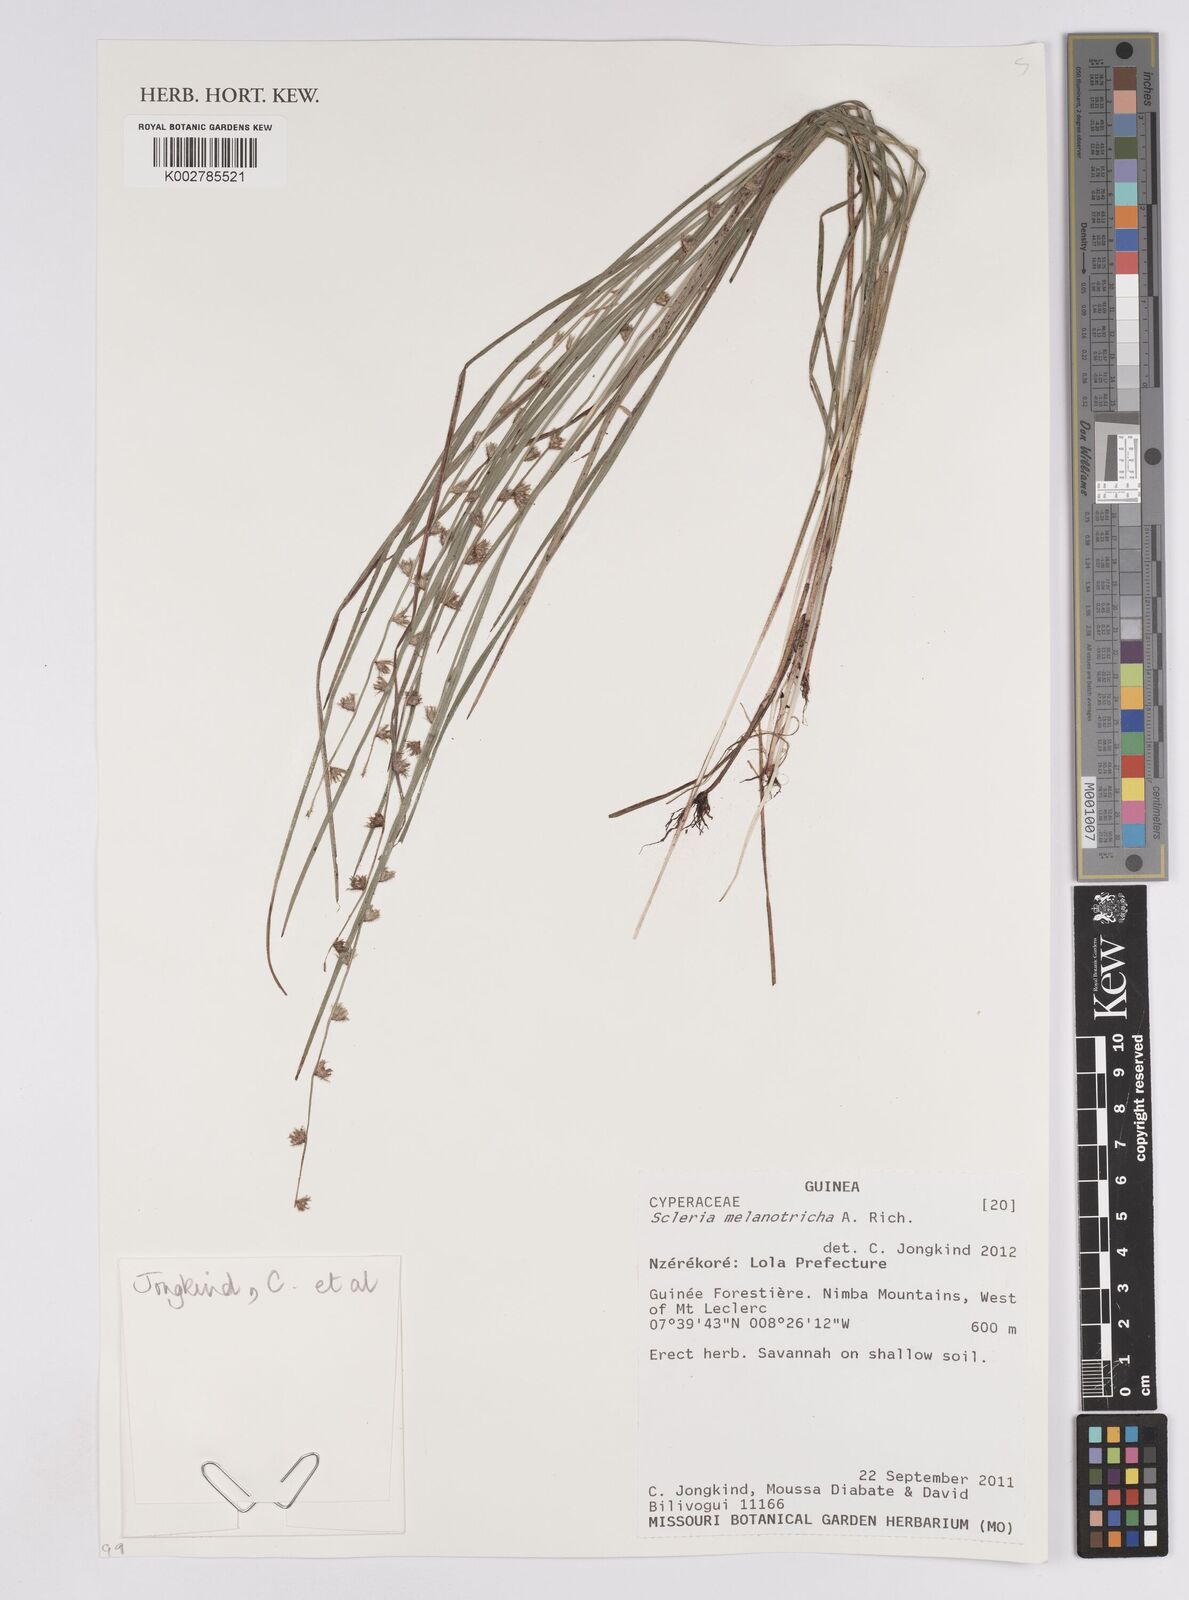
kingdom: Plantae
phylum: Tracheophyta
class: Liliopsida
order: Poales
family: Cyperaceae
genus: Scleria
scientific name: Scleria melanotricha
